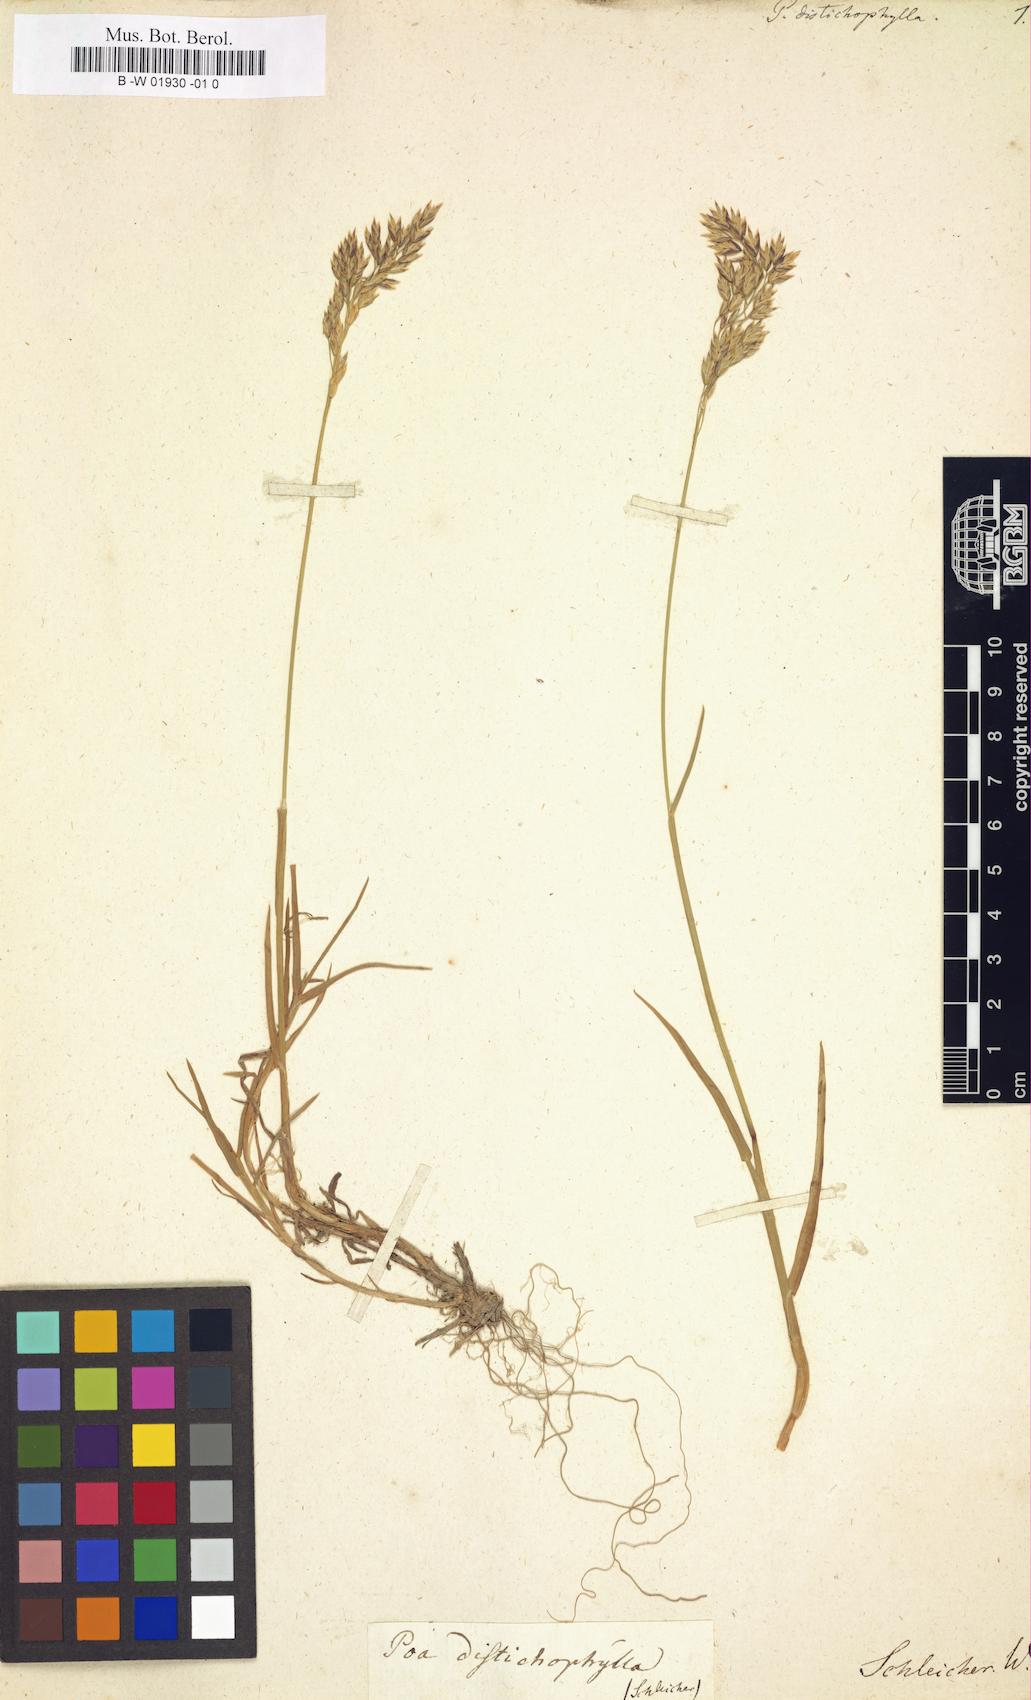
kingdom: Plantae
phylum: Tracheophyta
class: Liliopsida
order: Poales
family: Poaceae
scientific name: Poaceae
